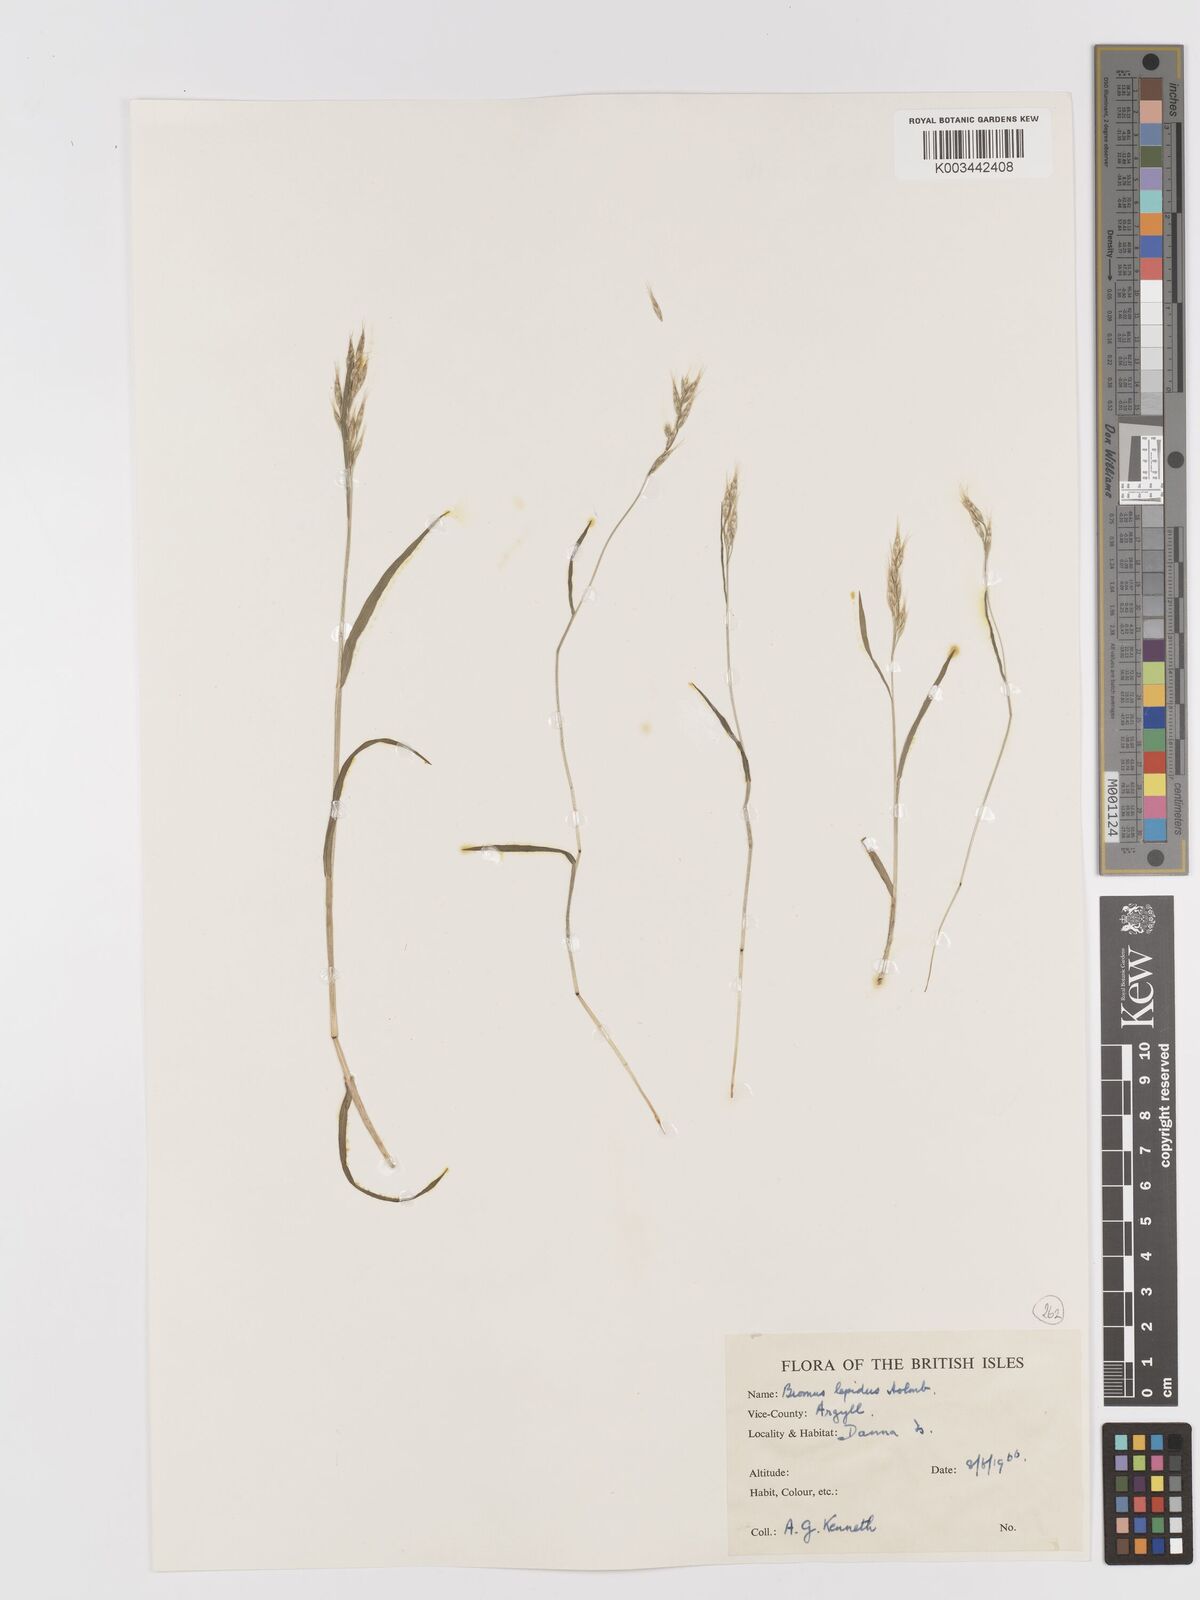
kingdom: Plantae
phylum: Tracheophyta
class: Liliopsida
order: Poales
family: Poaceae
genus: Bromus
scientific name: Bromus lepidus
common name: Slender soft-brome
